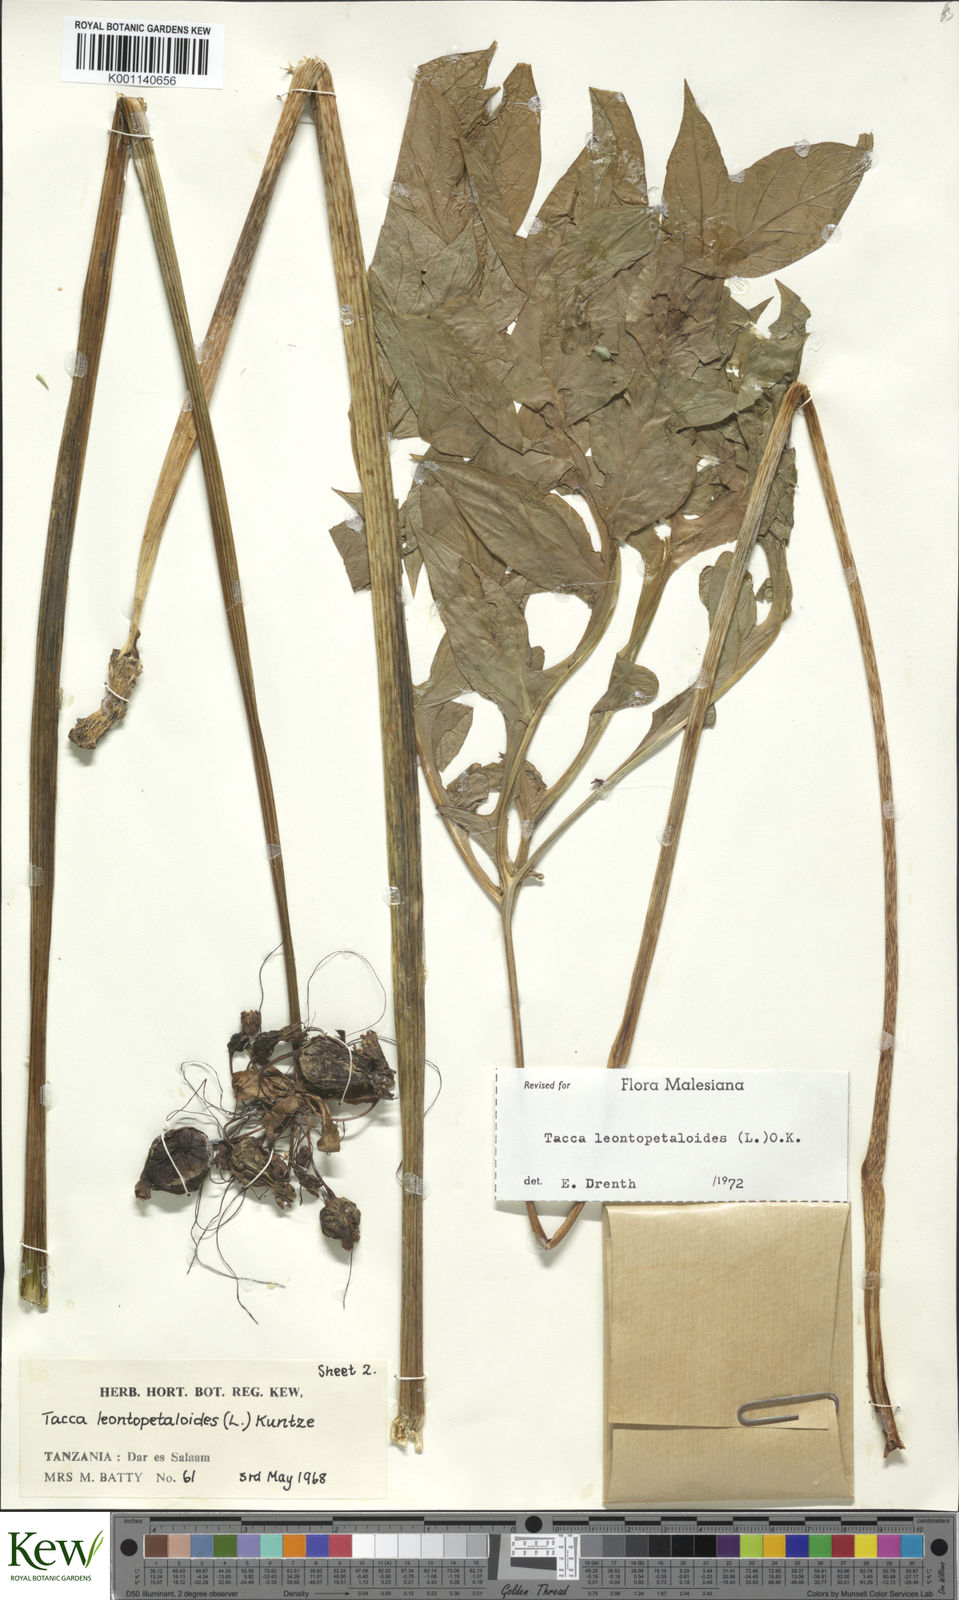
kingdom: Plantae
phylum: Tracheophyta
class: Liliopsida
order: Dioscoreales
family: Dioscoreaceae
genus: Tacca
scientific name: Tacca leontopetaloides
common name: Arrowroot
